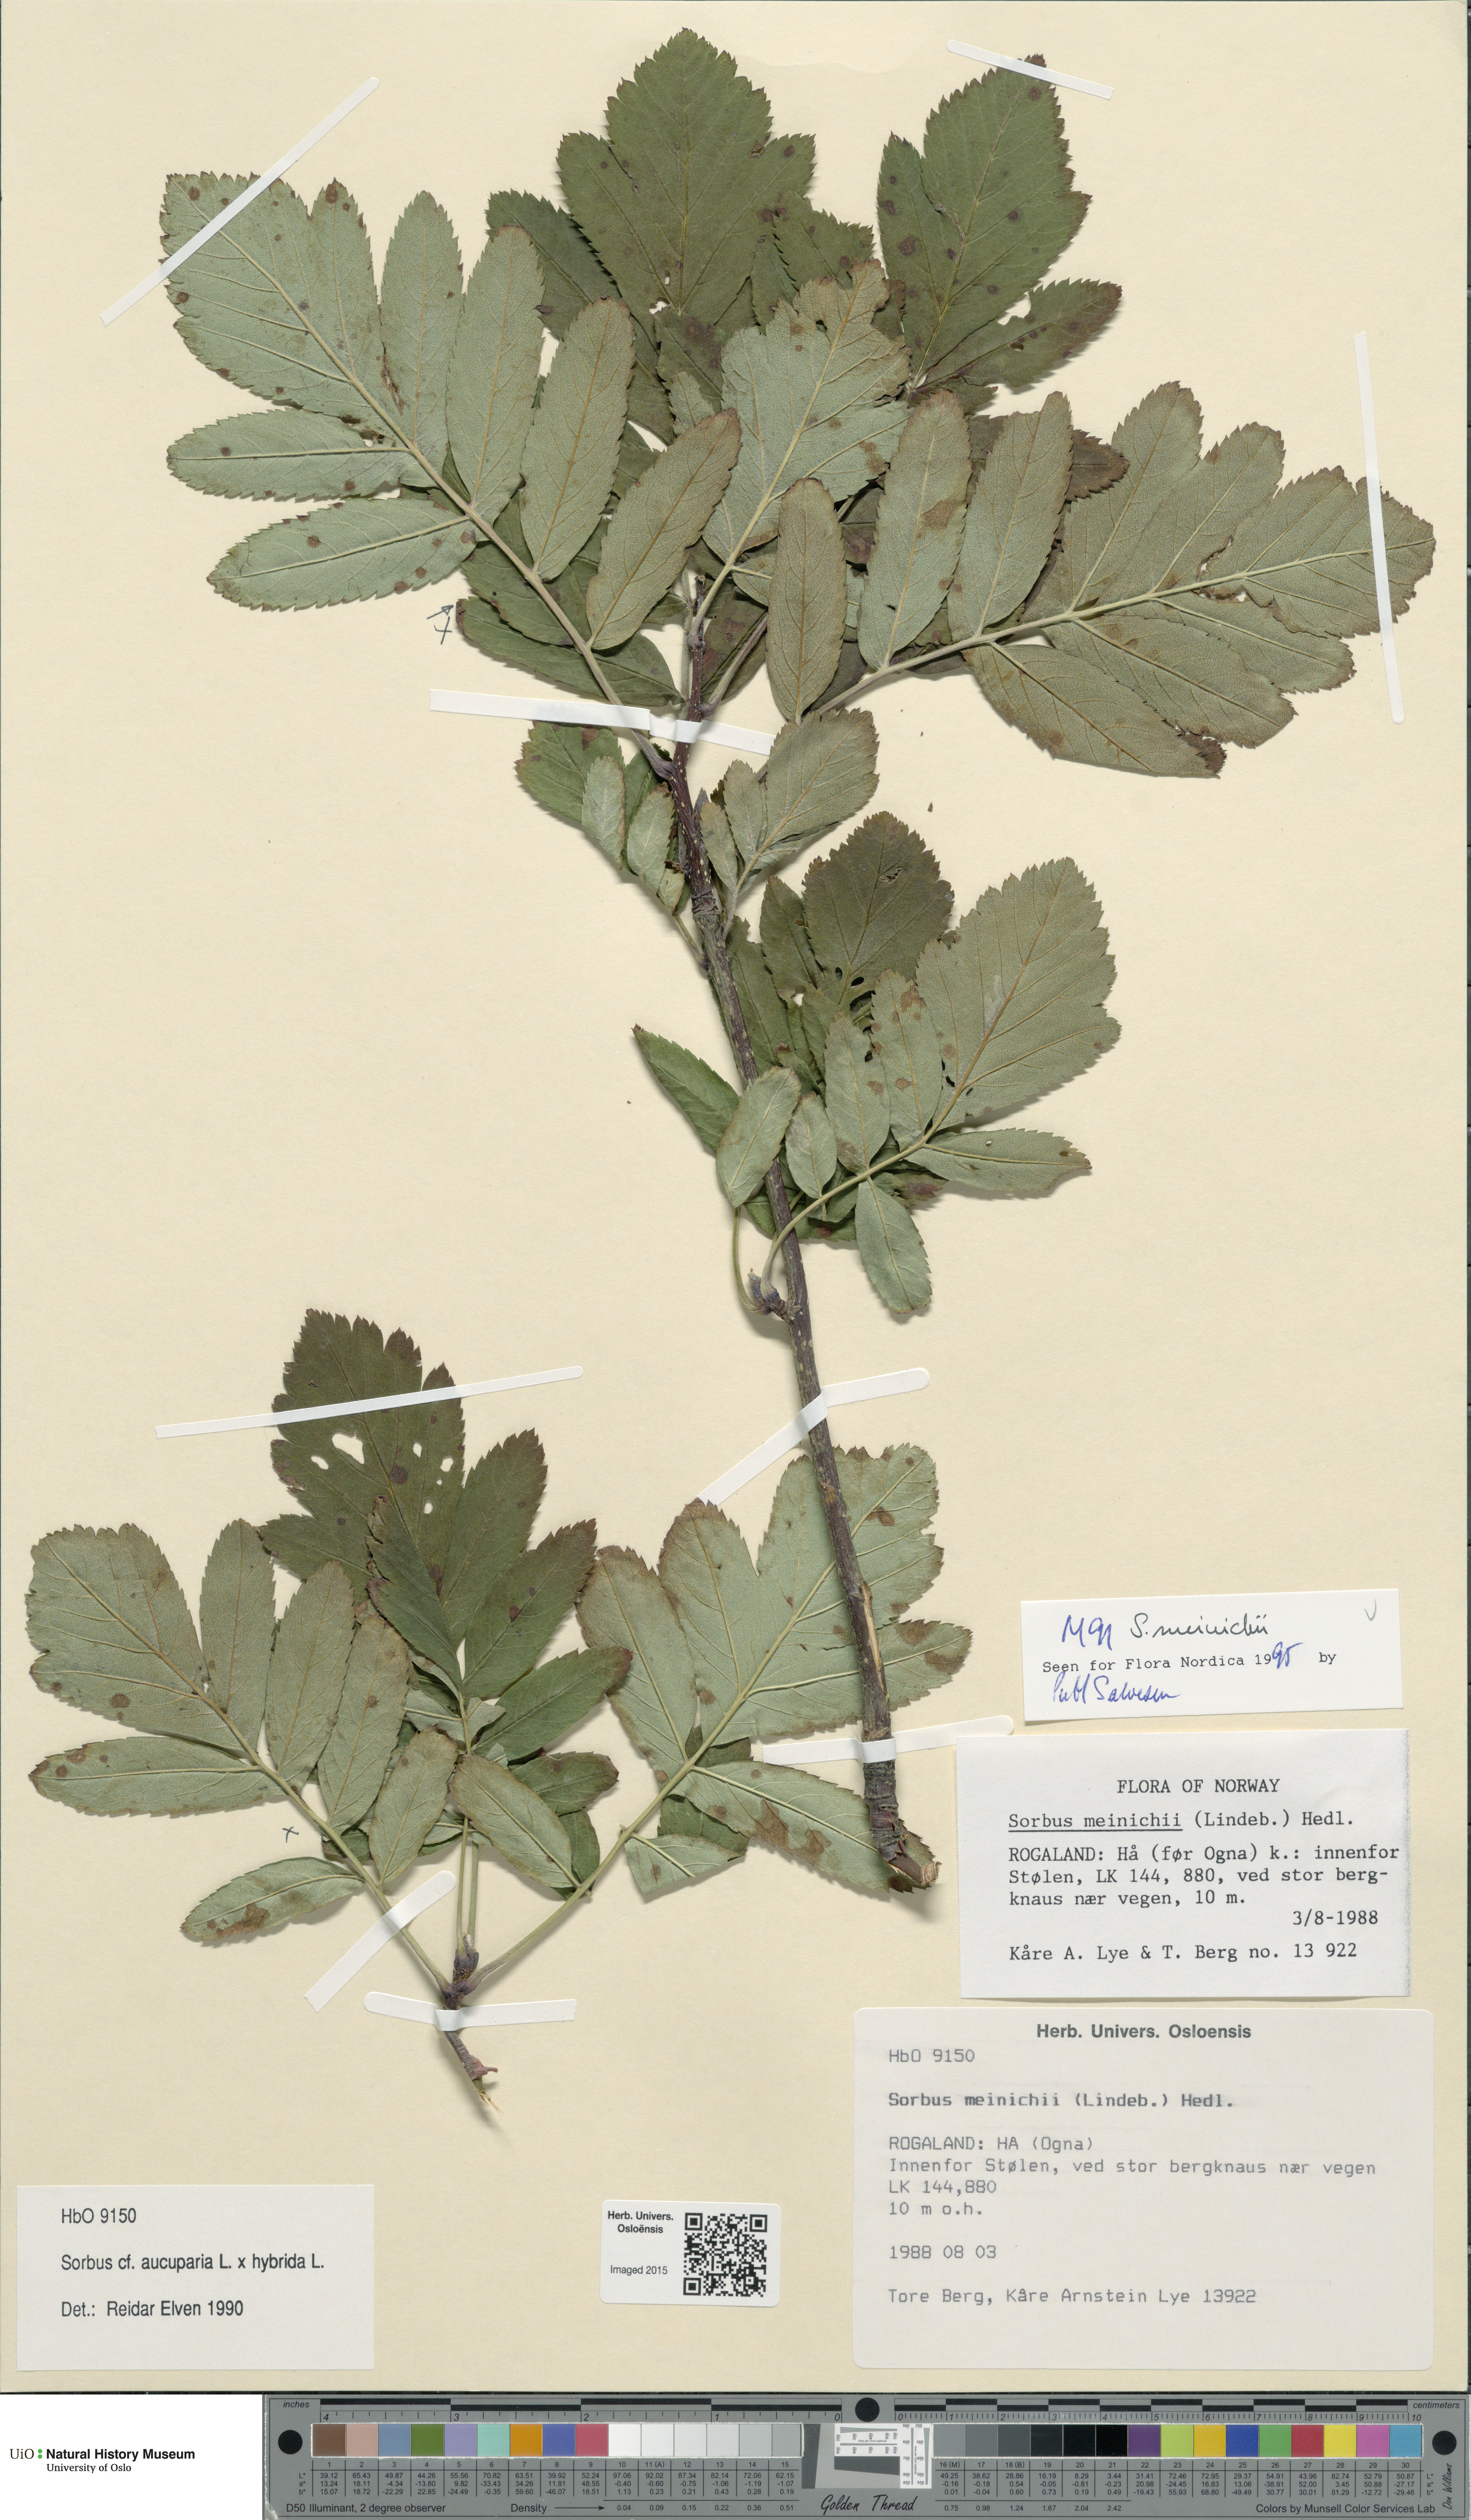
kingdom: Plantae
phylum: Tracheophyta
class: Magnoliopsida
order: Rosales
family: Rosaceae
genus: Hedlundia
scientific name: Hedlundia meinichii
